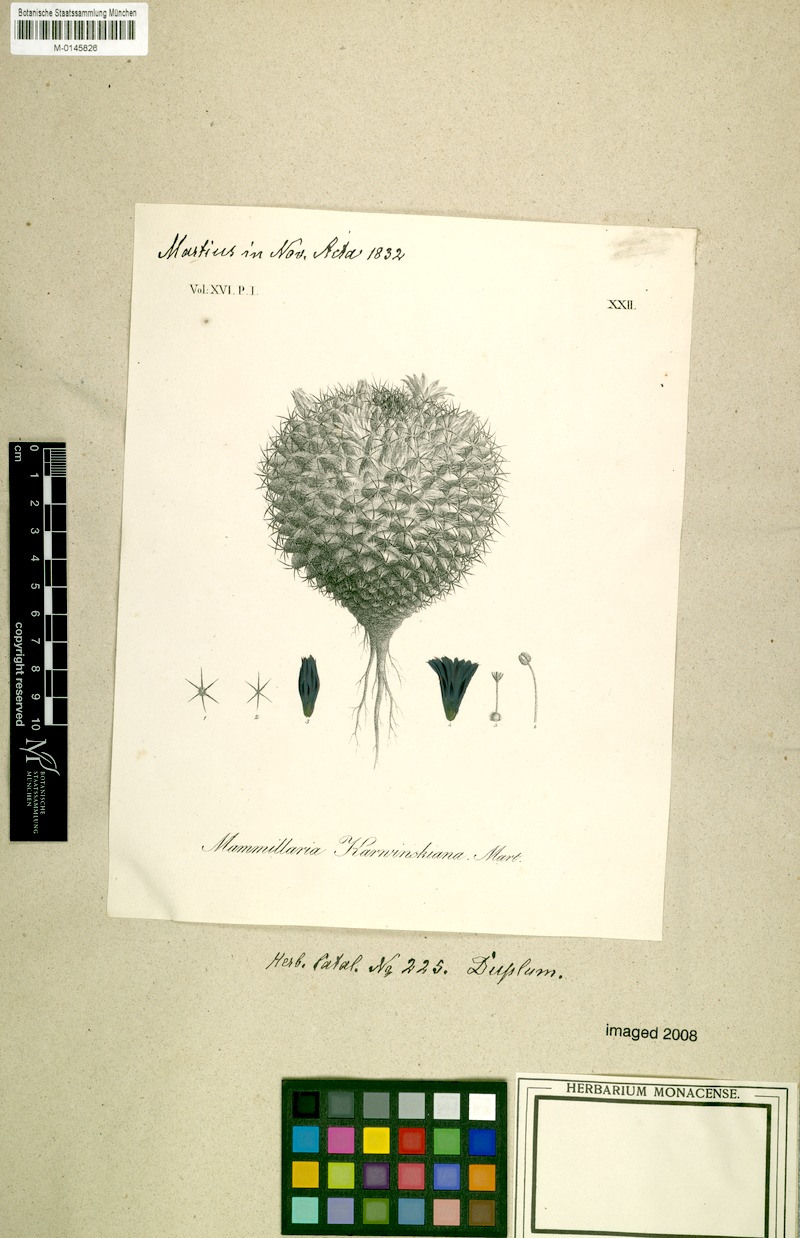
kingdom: Plantae
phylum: Tracheophyta
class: Magnoliopsida
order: Caryophyllales
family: Cactaceae
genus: Mammillaria
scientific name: Mammillaria karwinskiana
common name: Royal cross
